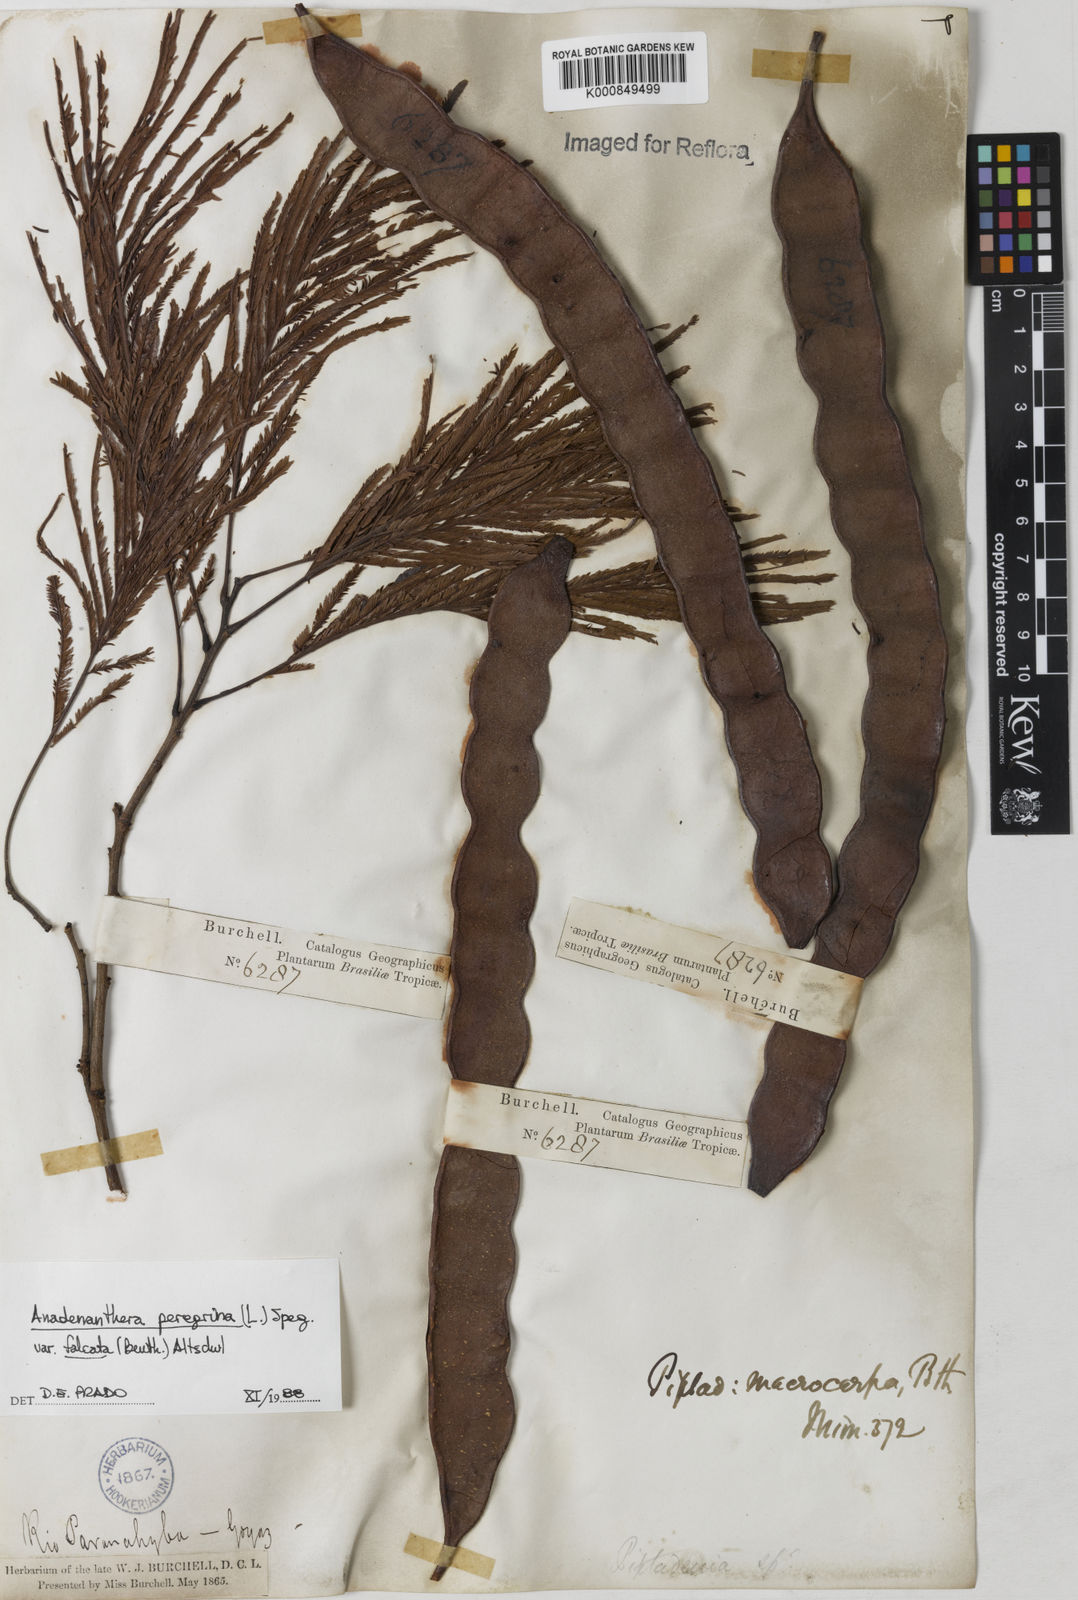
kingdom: Plantae
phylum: Tracheophyta
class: Magnoliopsida
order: Fabales
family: Fabaceae
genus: Anadenanthera
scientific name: Anadenanthera peregrina
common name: Cohoba
